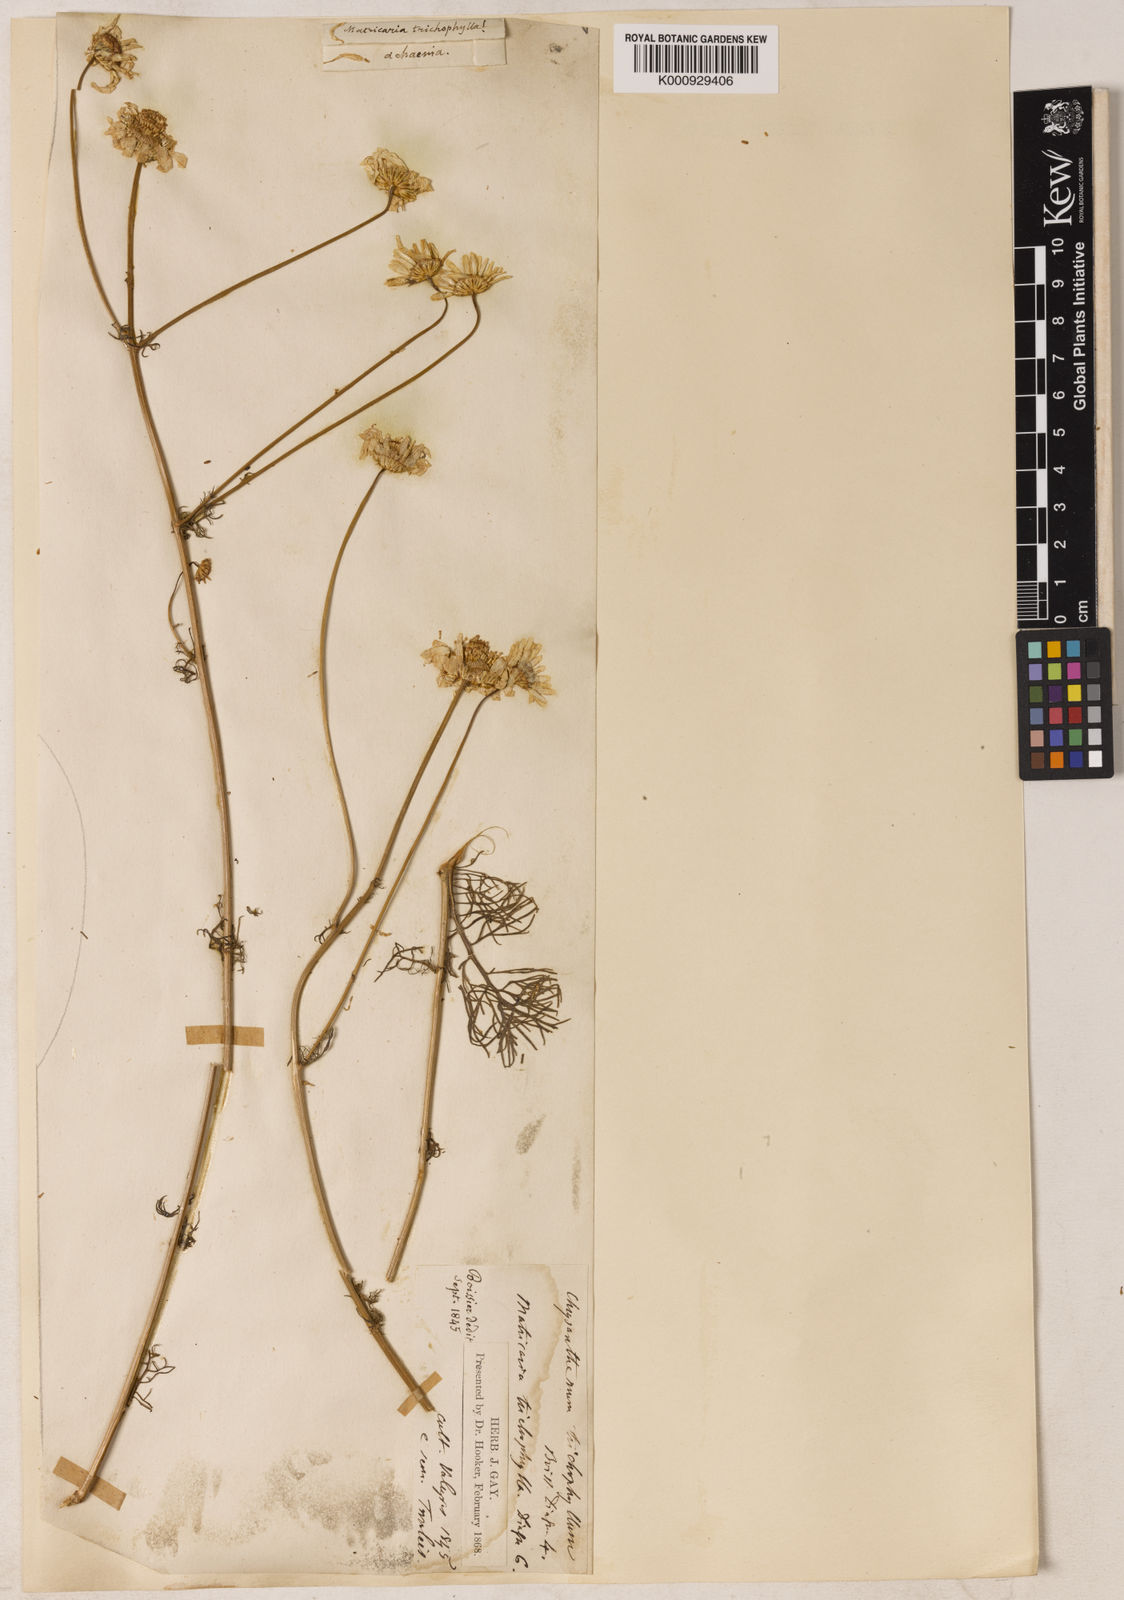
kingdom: Plantae
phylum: Tracheophyta
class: Magnoliopsida
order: Asterales
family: Asteraceae
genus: Tripleurospermum
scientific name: Tripleurospermum tenuifolium
